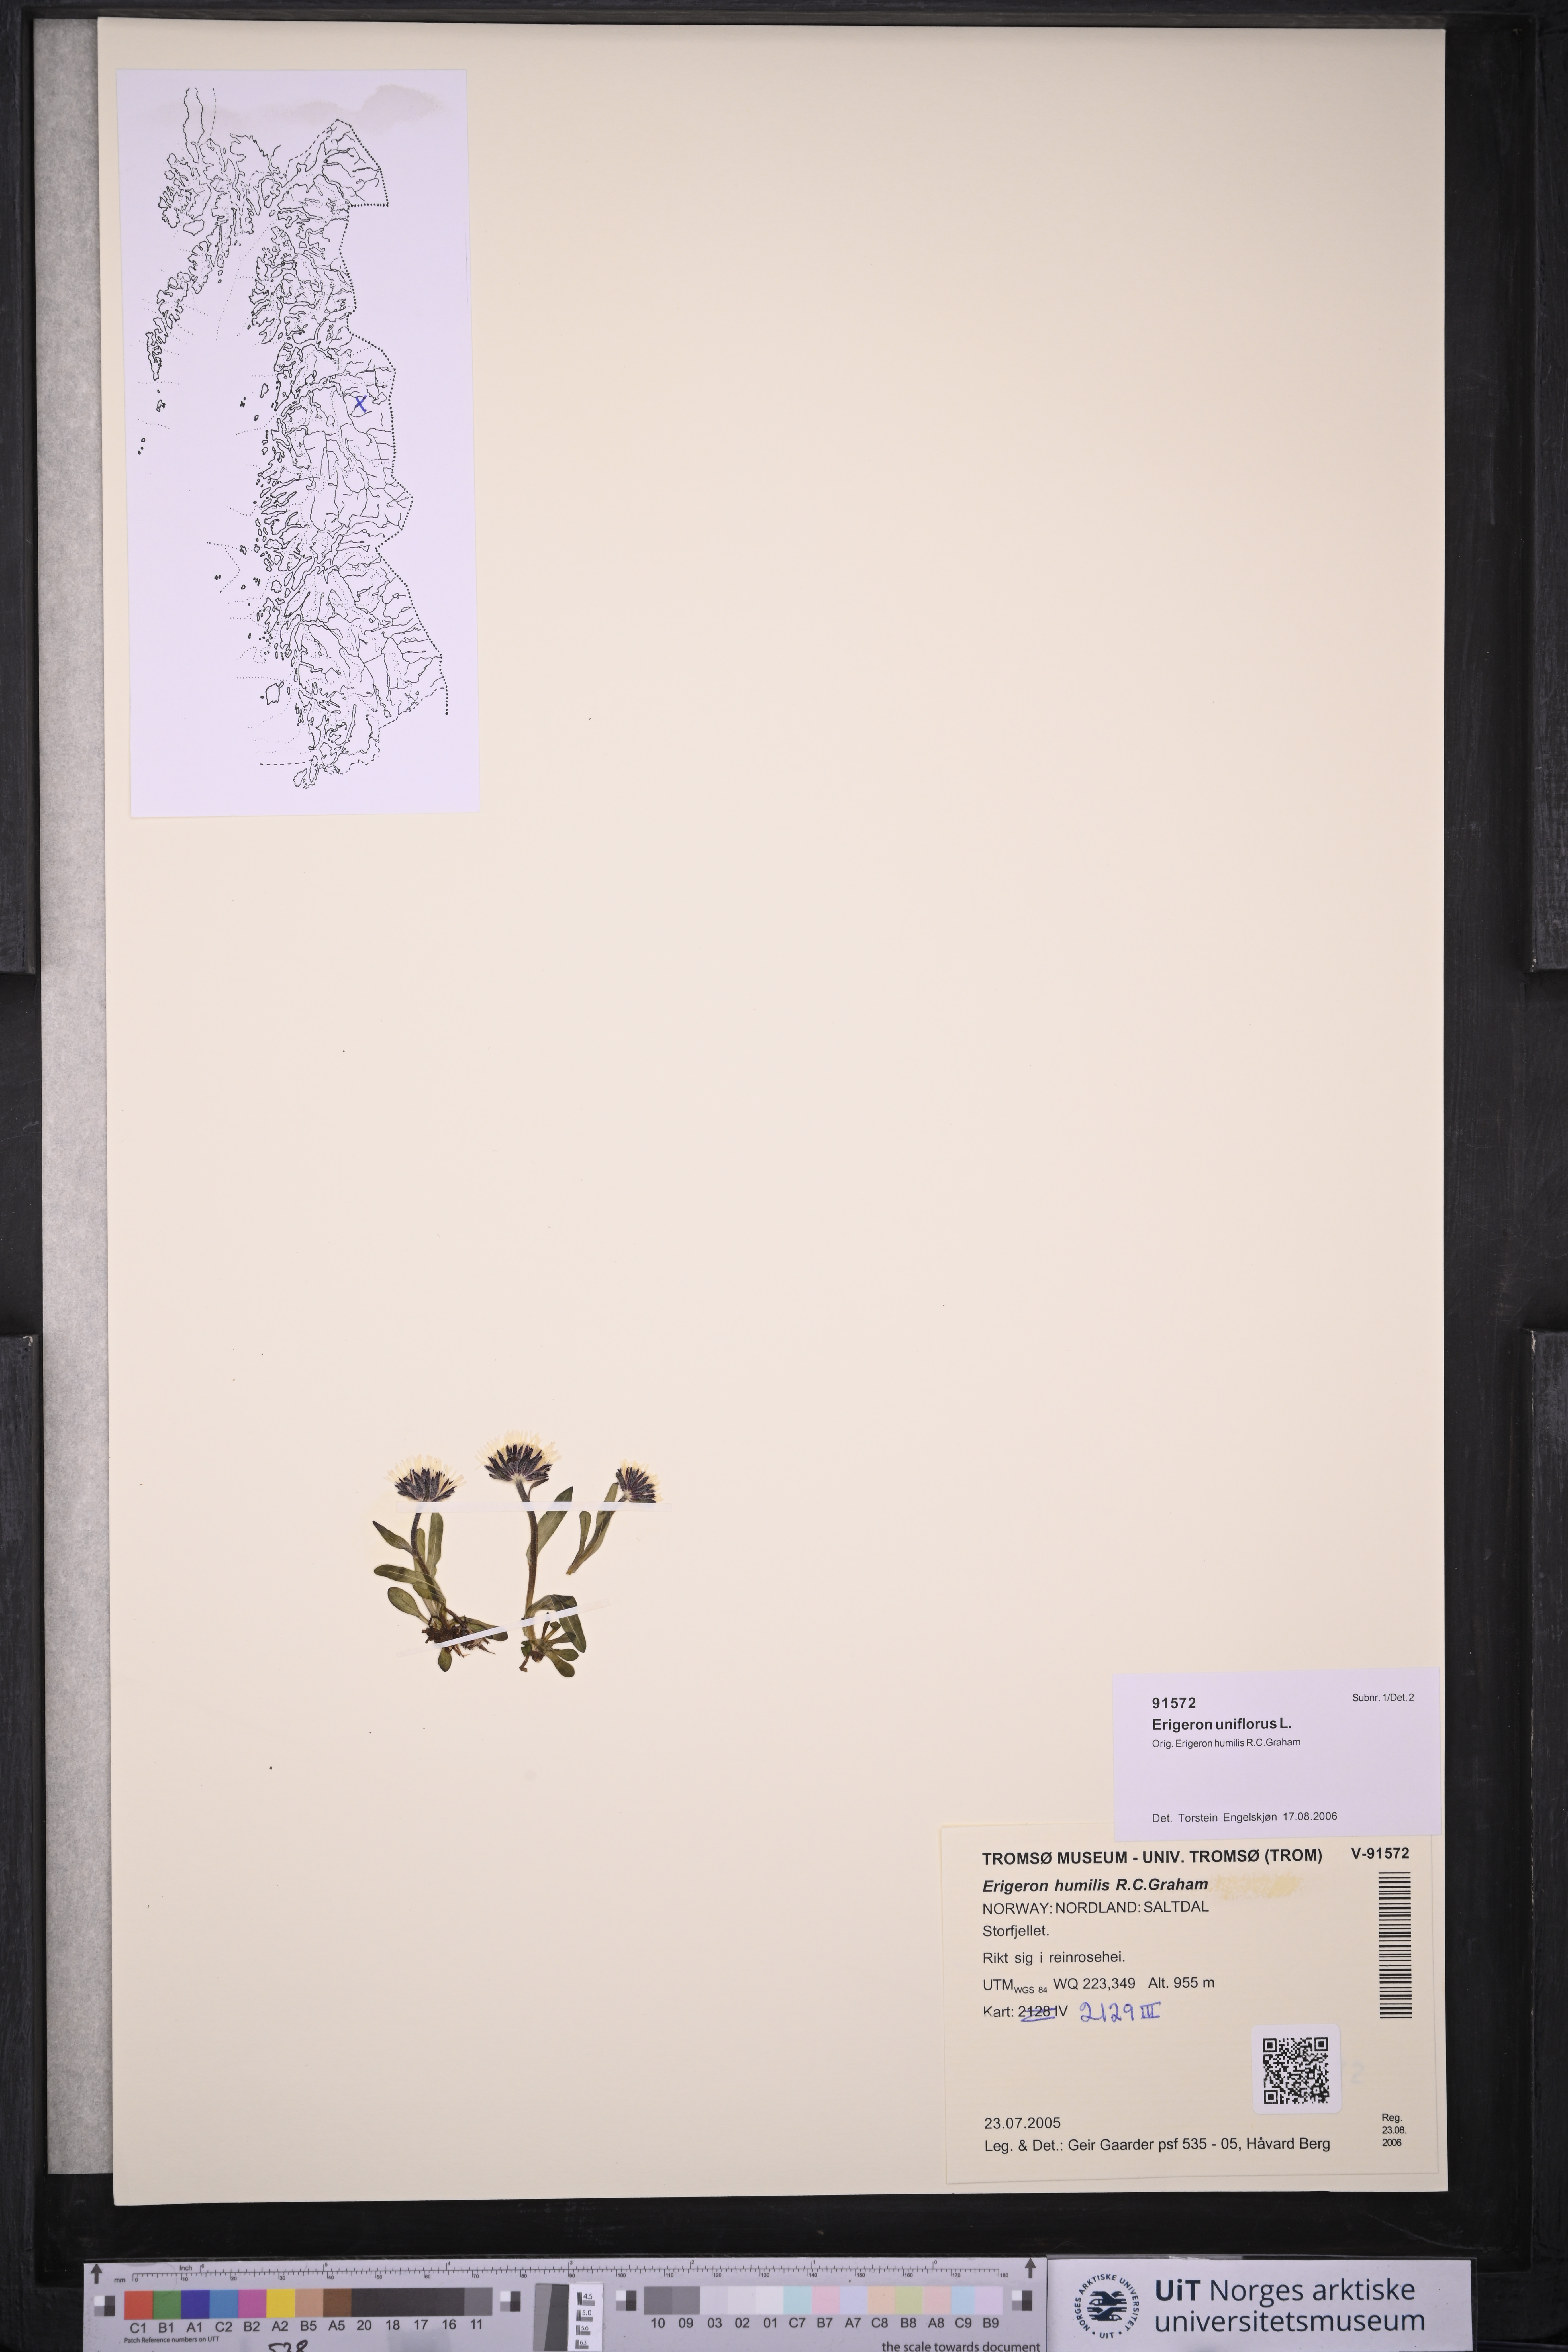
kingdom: Plantae
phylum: Tracheophyta
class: Magnoliopsida
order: Asterales
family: Asteraceae
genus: Erigeron
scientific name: Erigeron uniflorus
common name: Northern daisy
